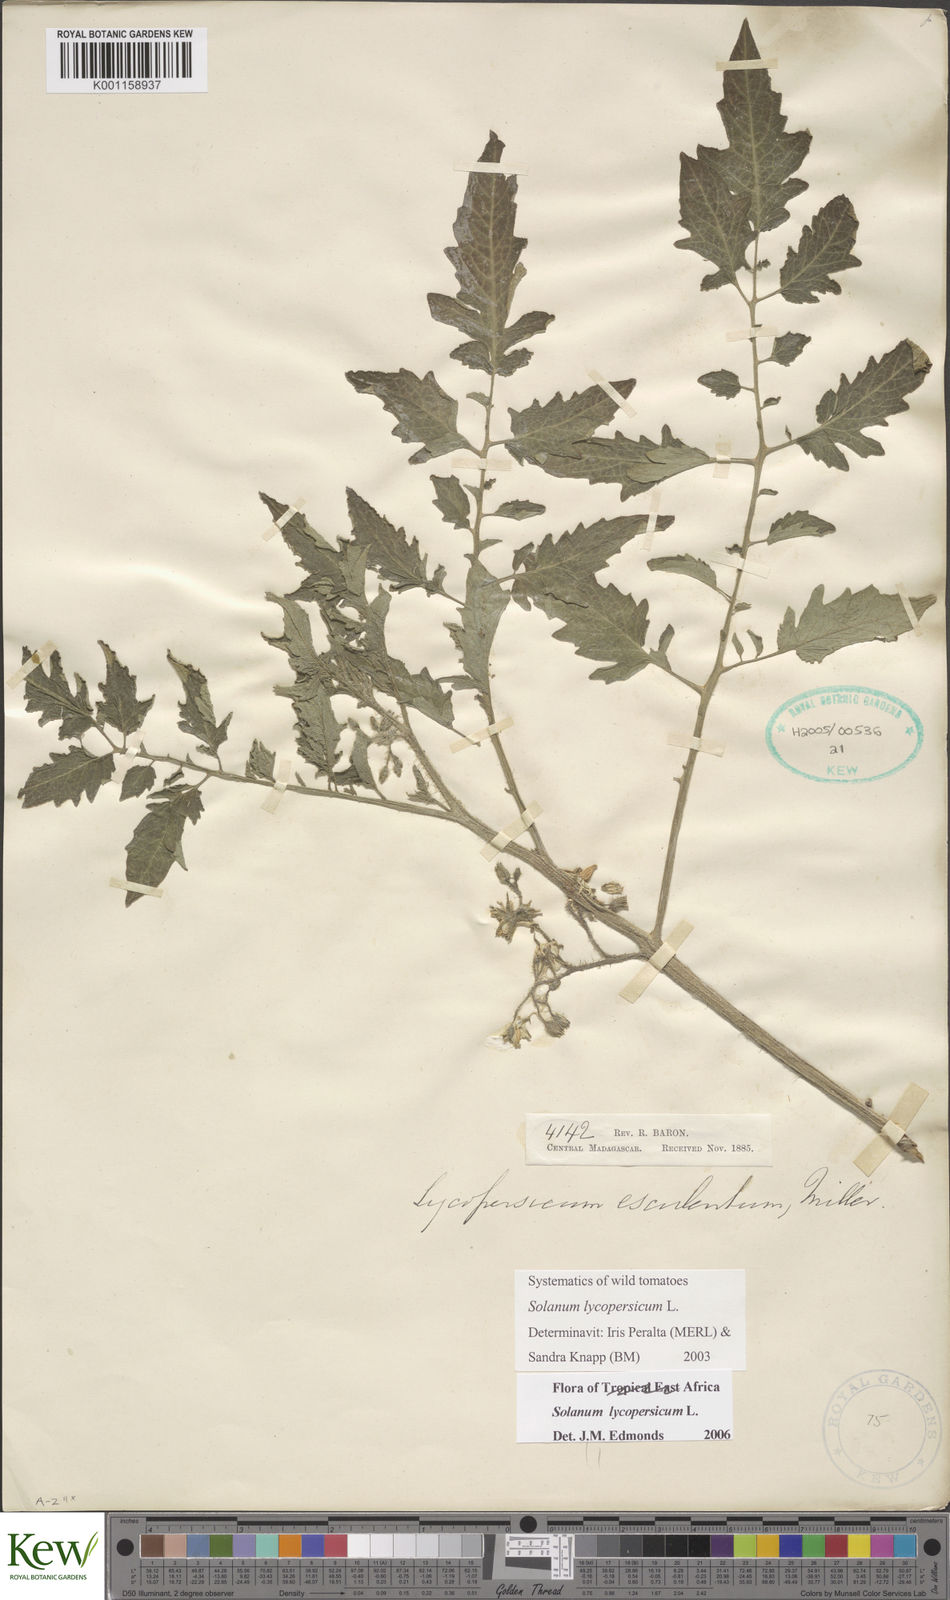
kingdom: Plantae
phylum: Tracheophyta
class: Magnoliopsida
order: Solanales
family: Solanaceae
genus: Solanum
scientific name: Solanum lycopersicum
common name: Garden tomato
